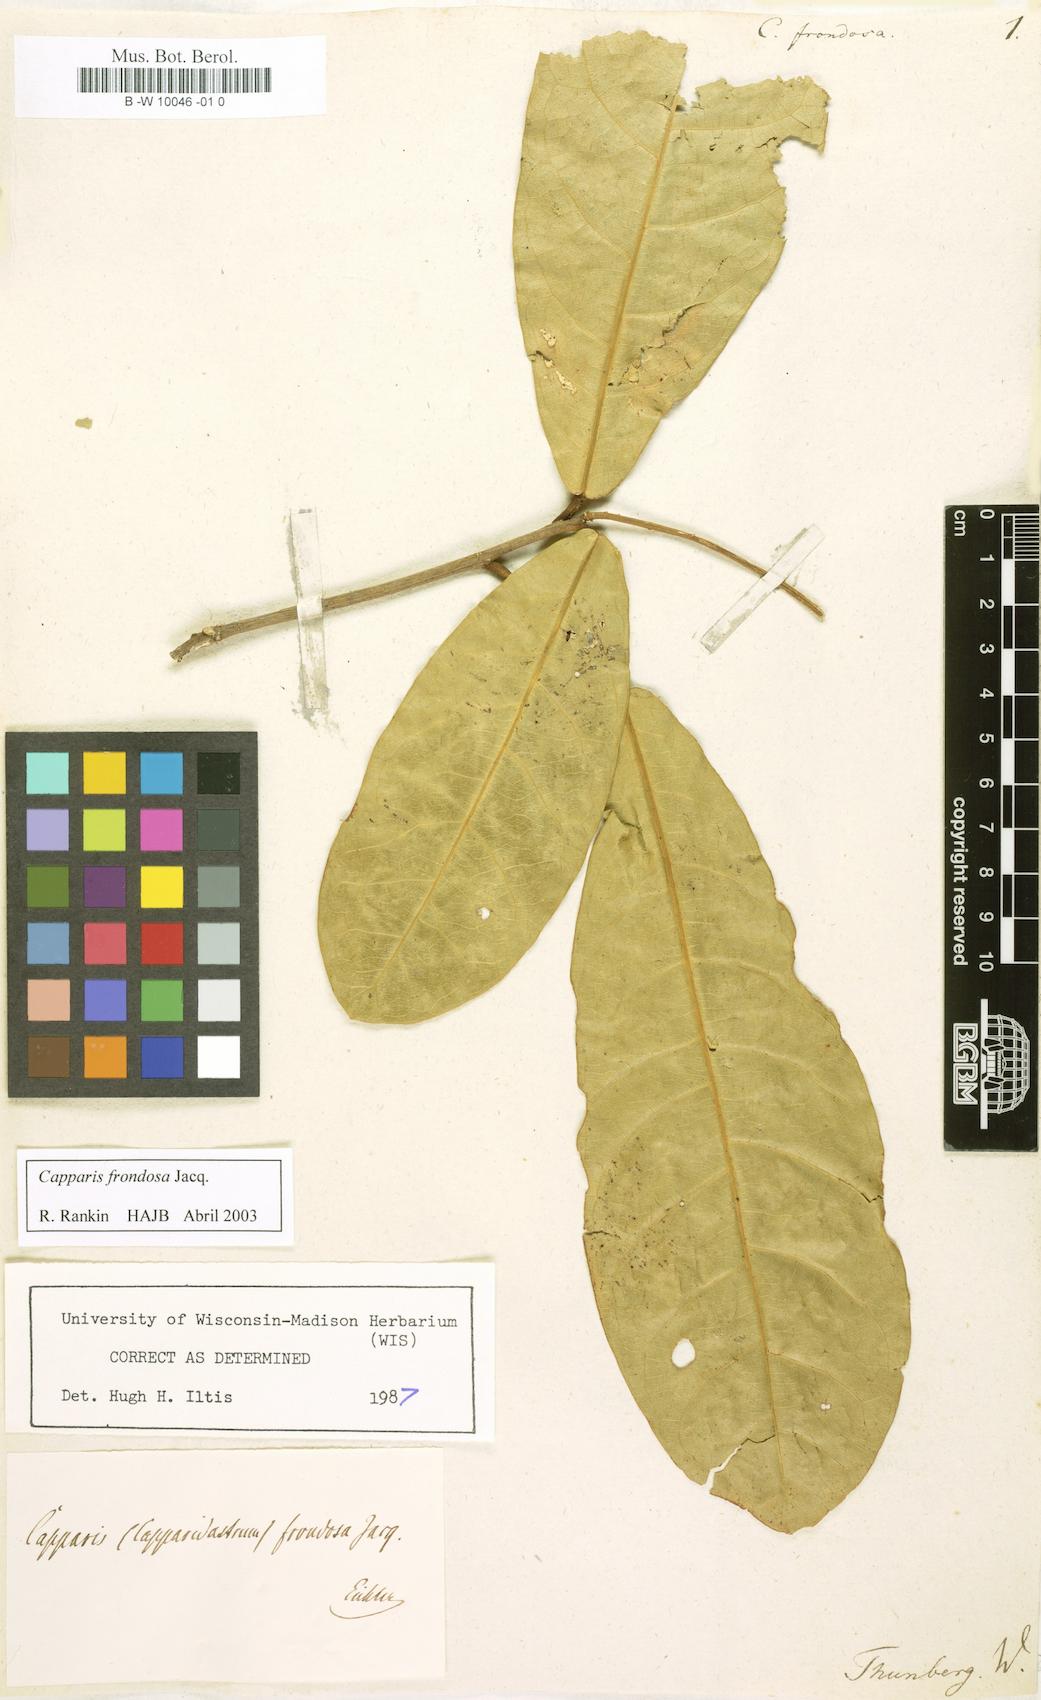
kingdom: Plantae
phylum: Tracheophyta
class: Magnoliopsida
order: Brassicales
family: Capparaceae
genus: Capparidastrum
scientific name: Capparidastrum frondosum
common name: Church blossom
